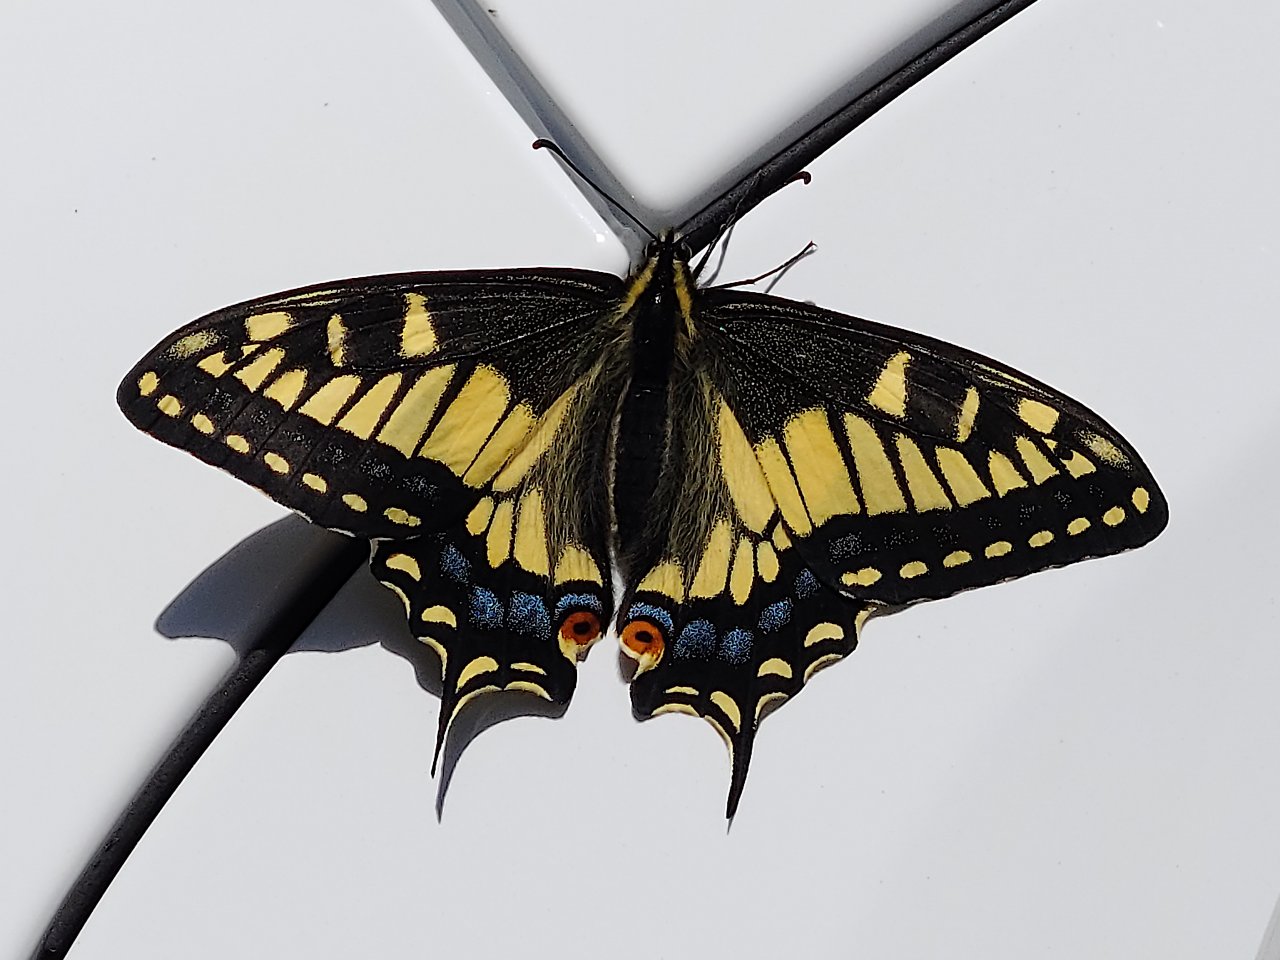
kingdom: Animalia
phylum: Arthropoda
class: Insecta
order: Lepidoptera
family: Papilionidae
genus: Papilio
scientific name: Papilio zelicaon
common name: Anise Swallowtail
